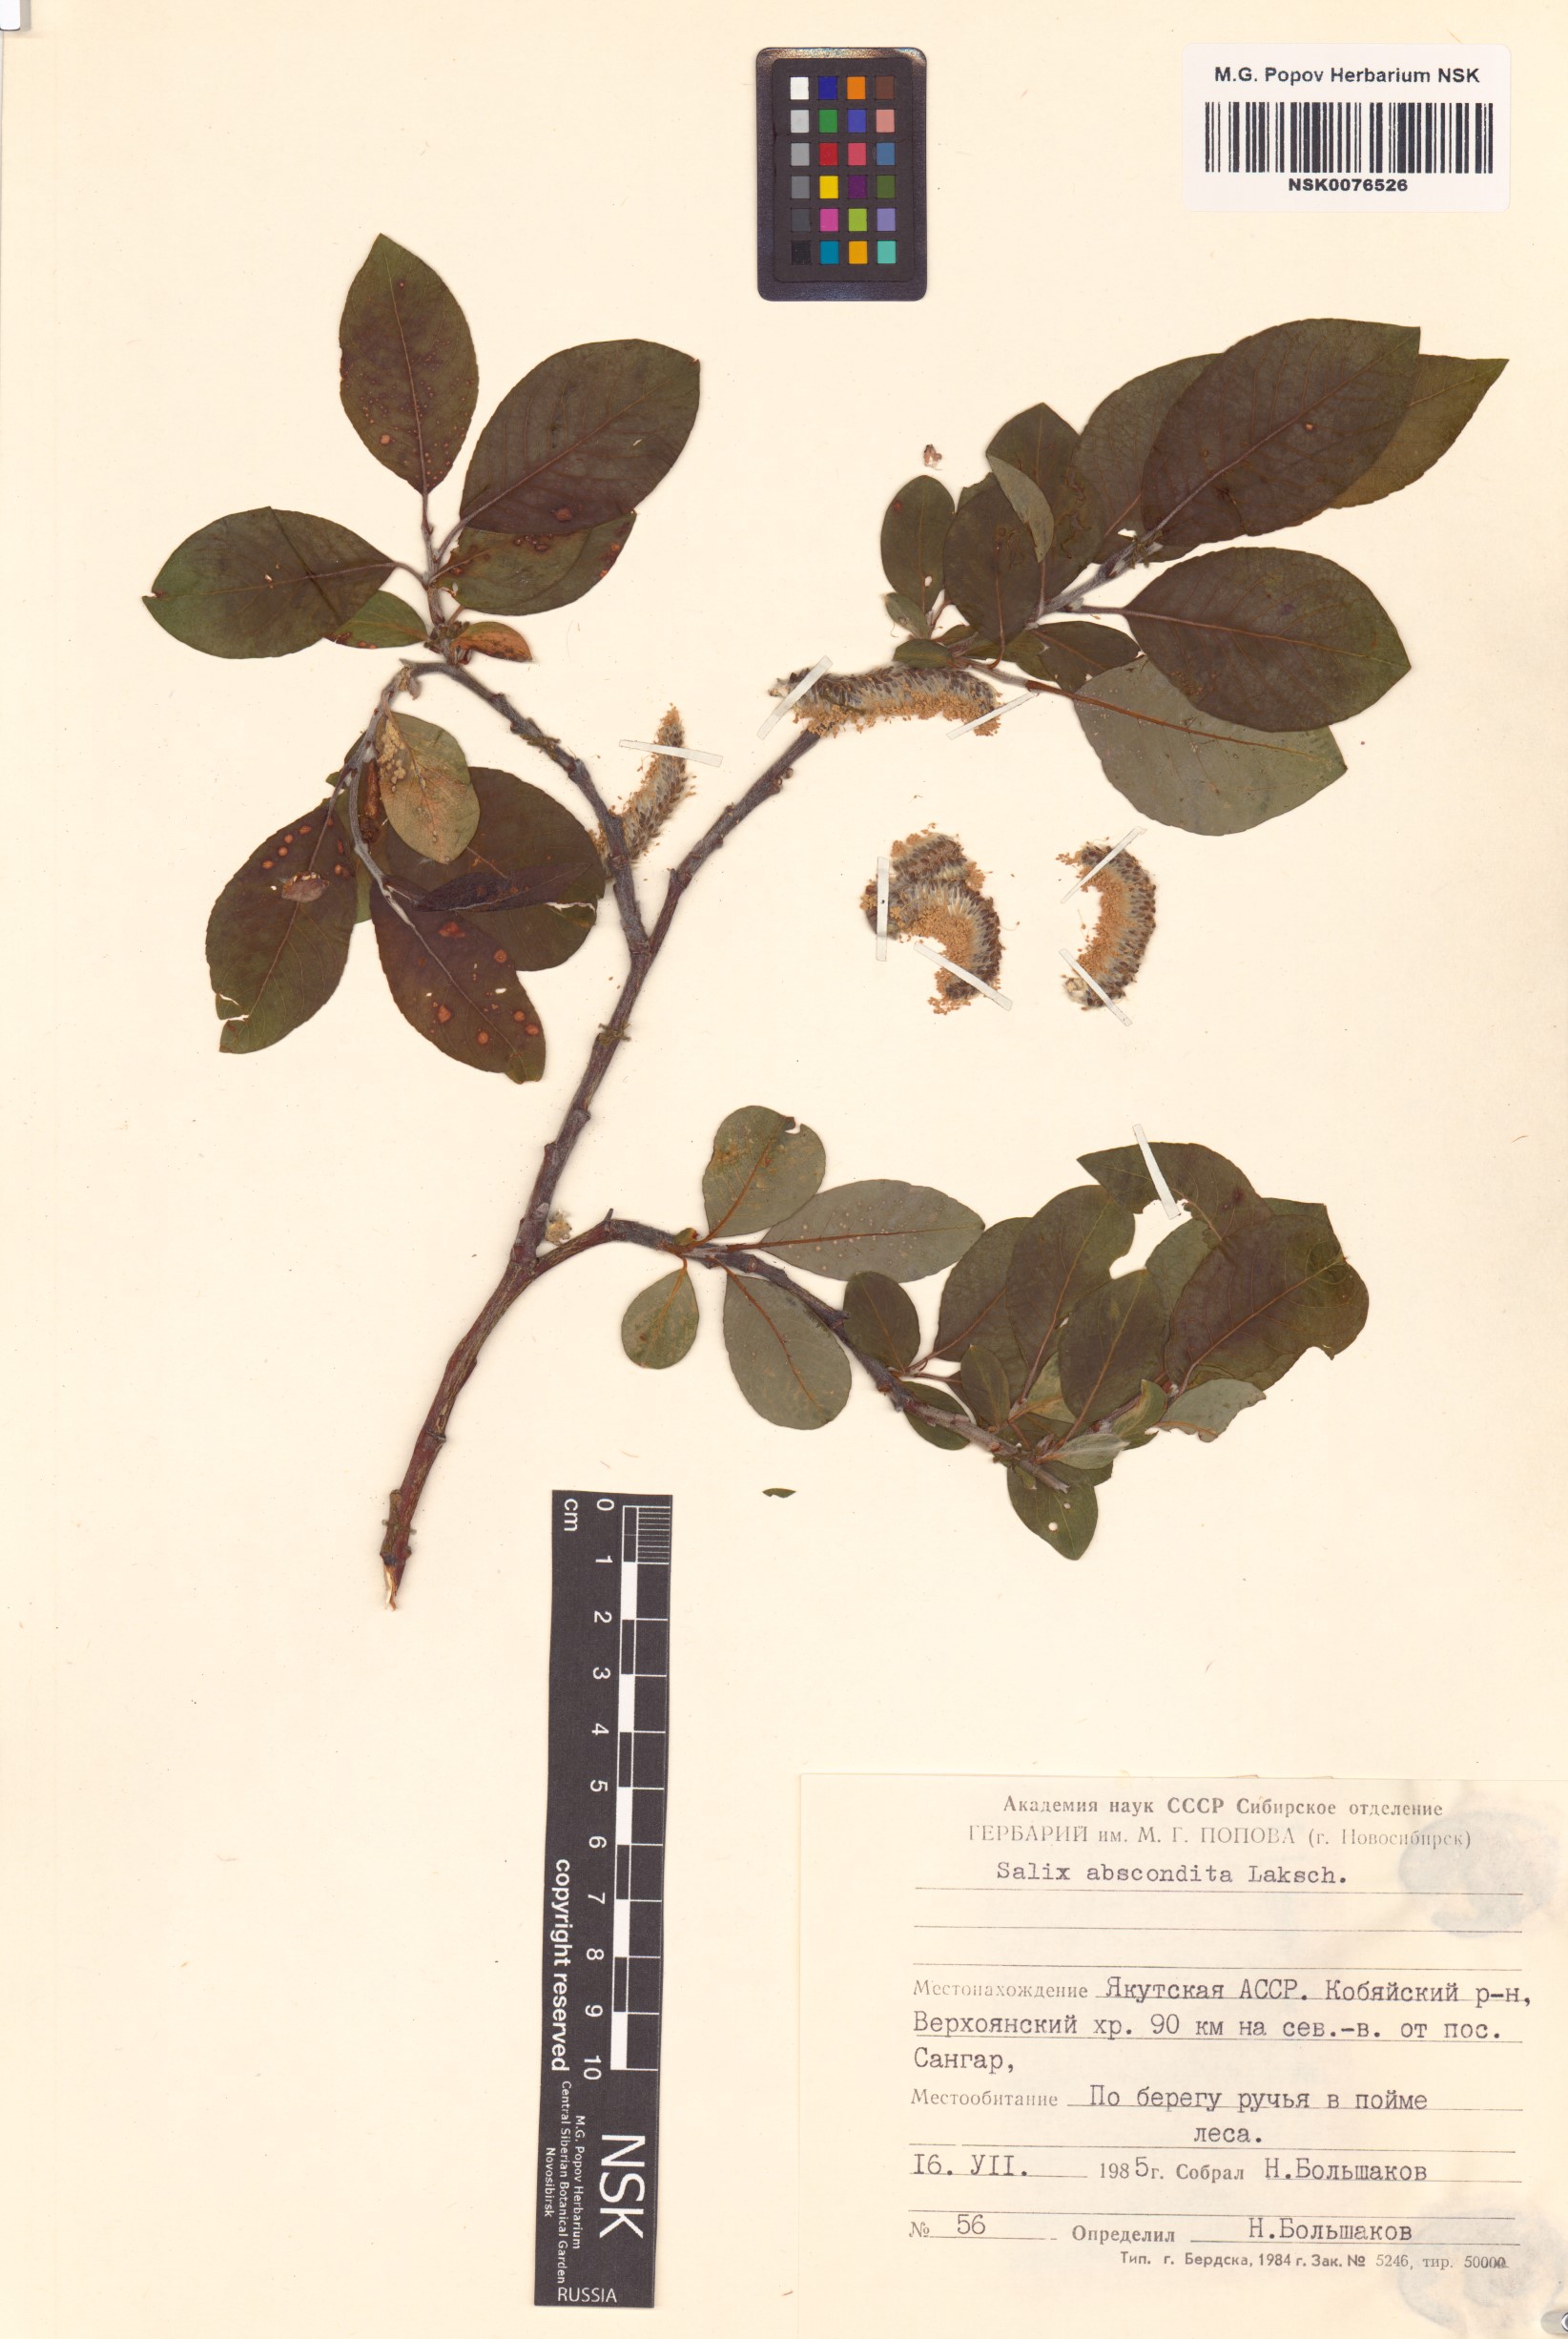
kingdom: Plantae
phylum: Tracheophyta
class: Magnoliopsida
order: Malpighiales
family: Salicaceae
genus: Salix
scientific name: Salix abscondita
